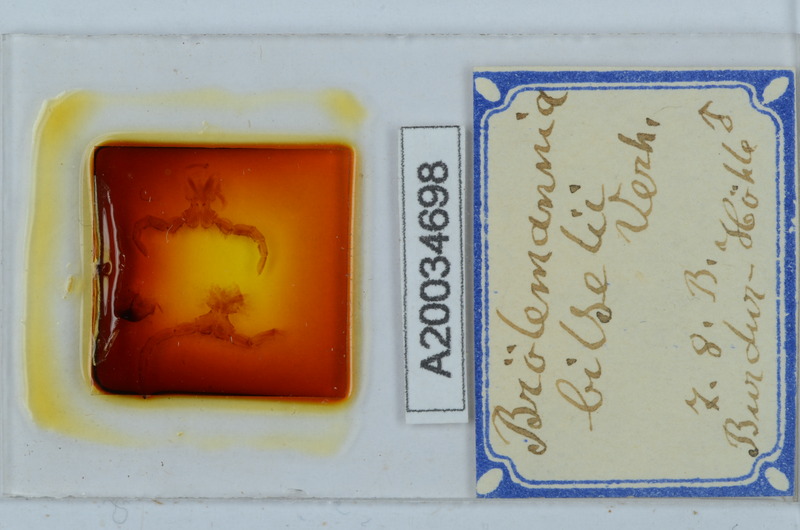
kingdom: Animalia
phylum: Arthropoda
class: Diplopoda
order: Callipodida
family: Schizopetalidae
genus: Eurygyrus
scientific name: Eurygyrus bilselii
